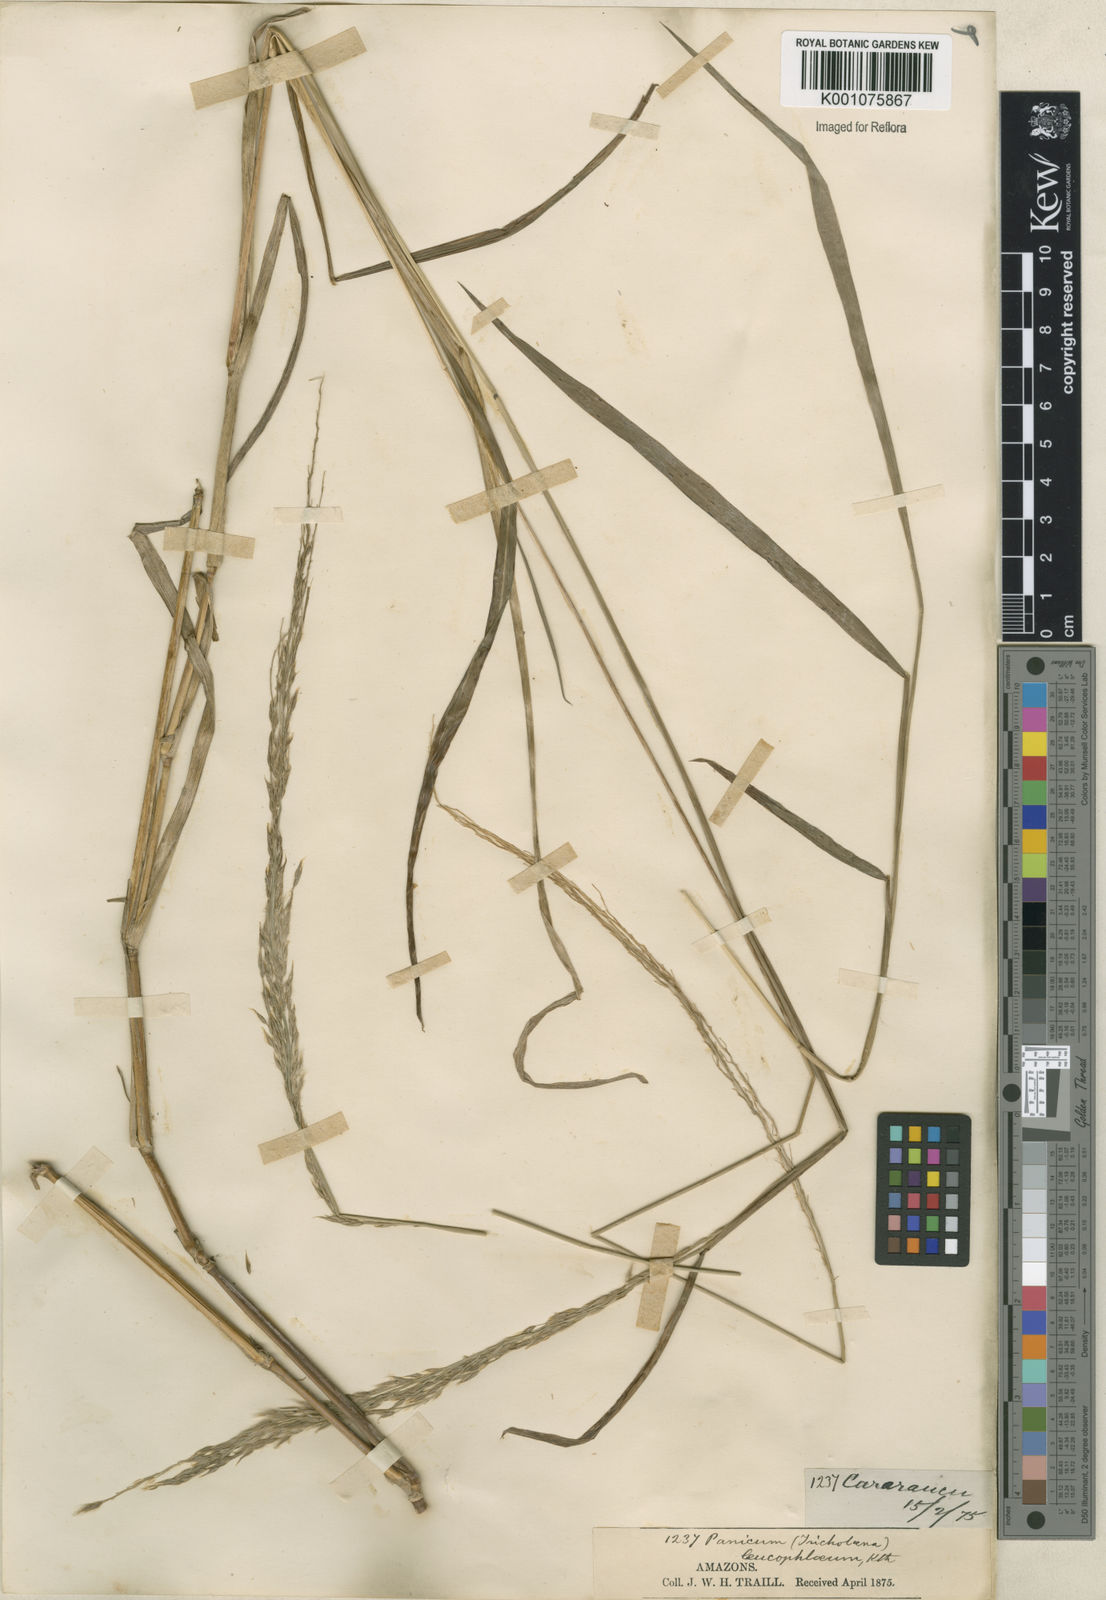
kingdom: Plantae
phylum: Tracheophyta
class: Liliopsida
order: Poales
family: Poaceae
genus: Digitaria
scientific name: Digitaria
